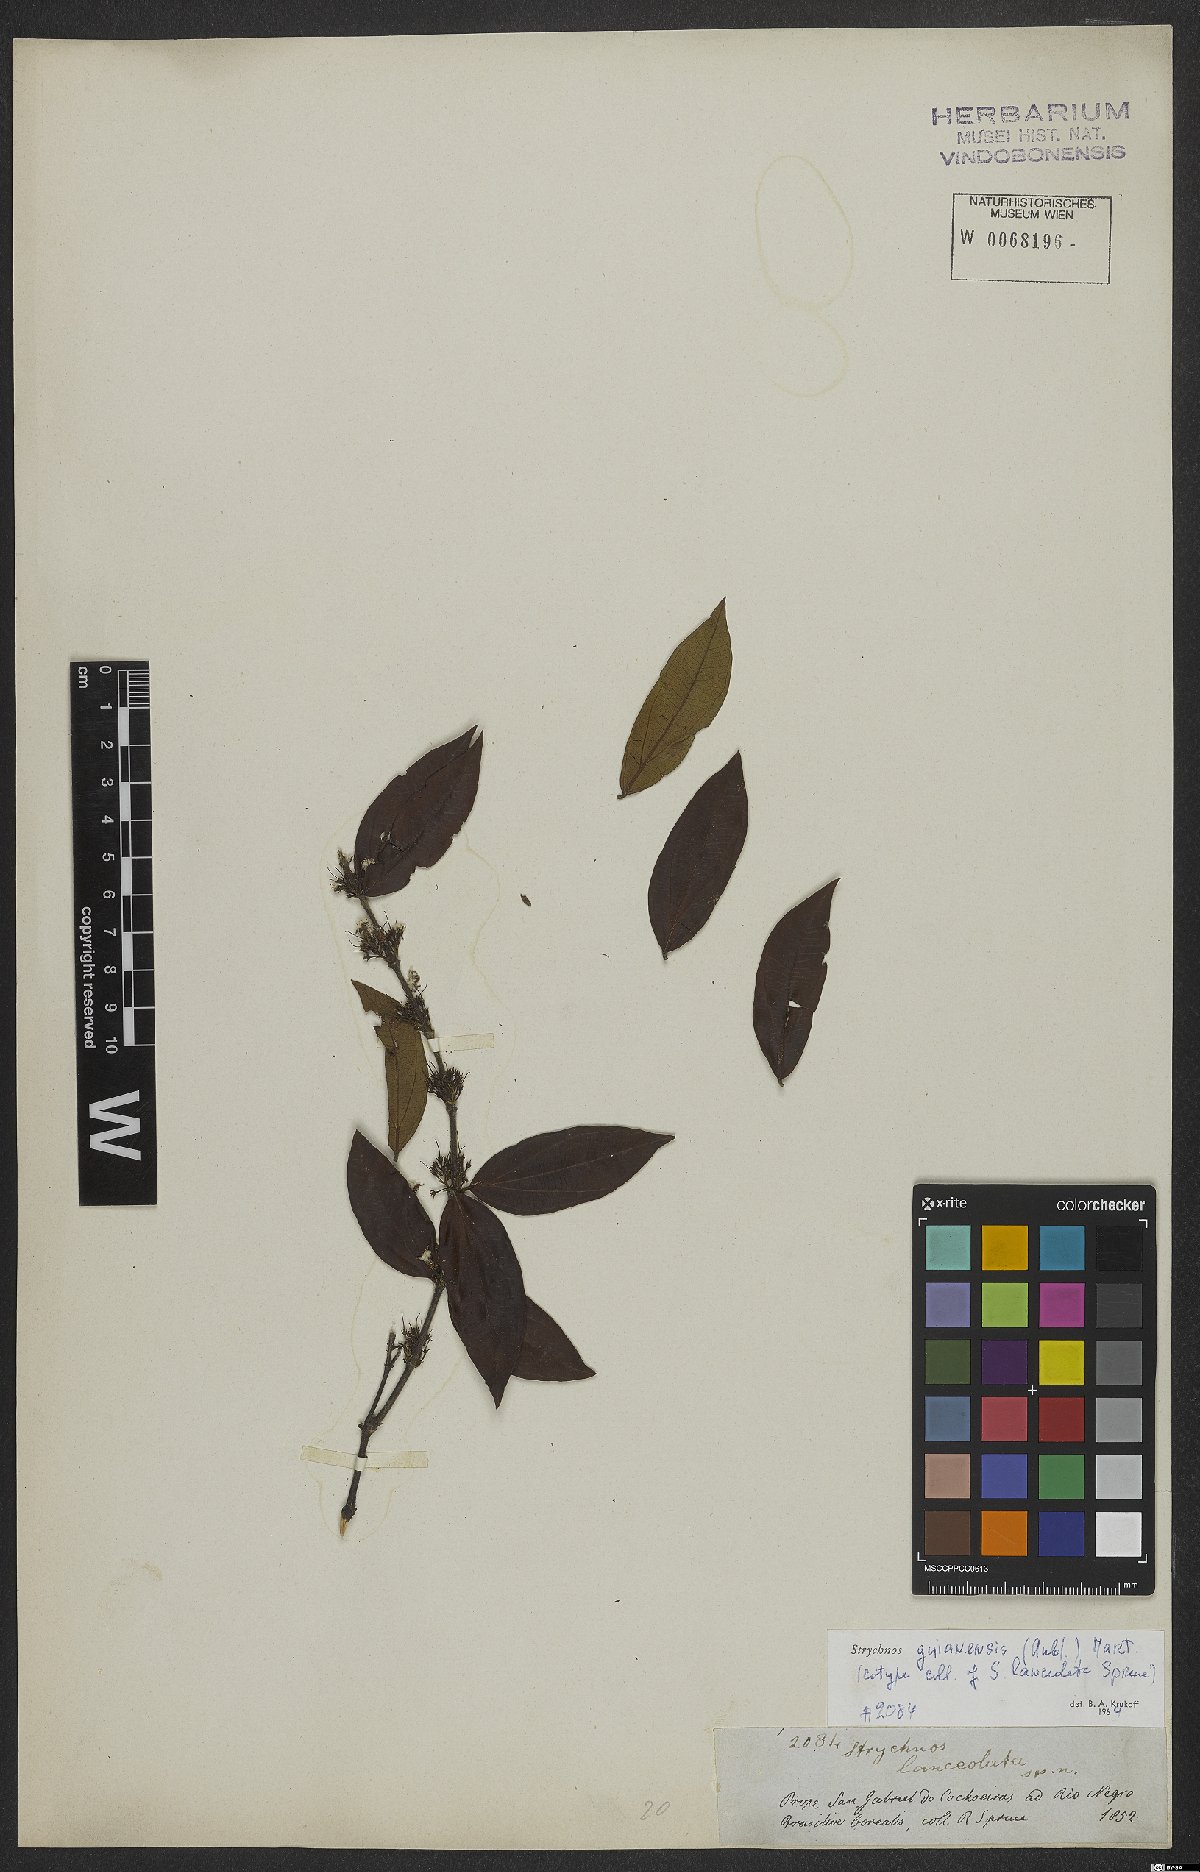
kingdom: Plantae
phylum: Tracheophyta
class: Magnoliopsida
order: Gentianales
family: Loganiaceae
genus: Strychnos
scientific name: Strychnos guianensis
